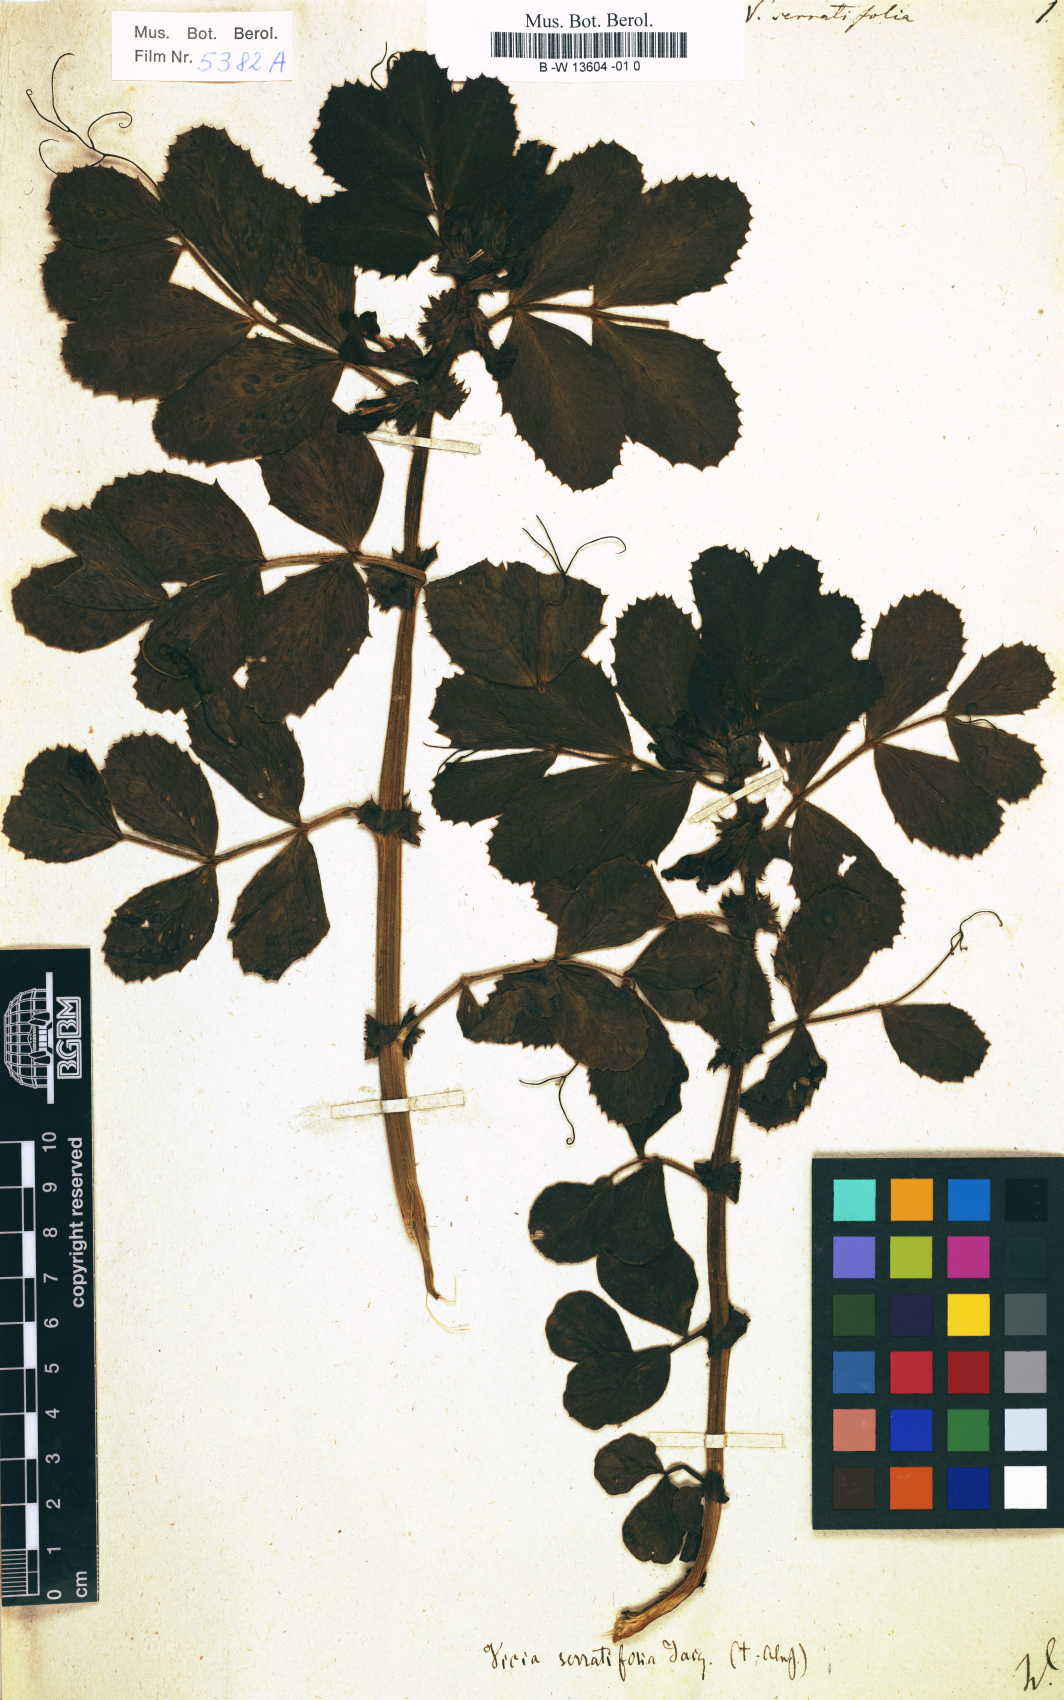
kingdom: Plantae
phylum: Tracheophyta
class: Magnoliopsida
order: Fabales
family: Fabaceae
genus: Vicia
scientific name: Vicia serratifolia
